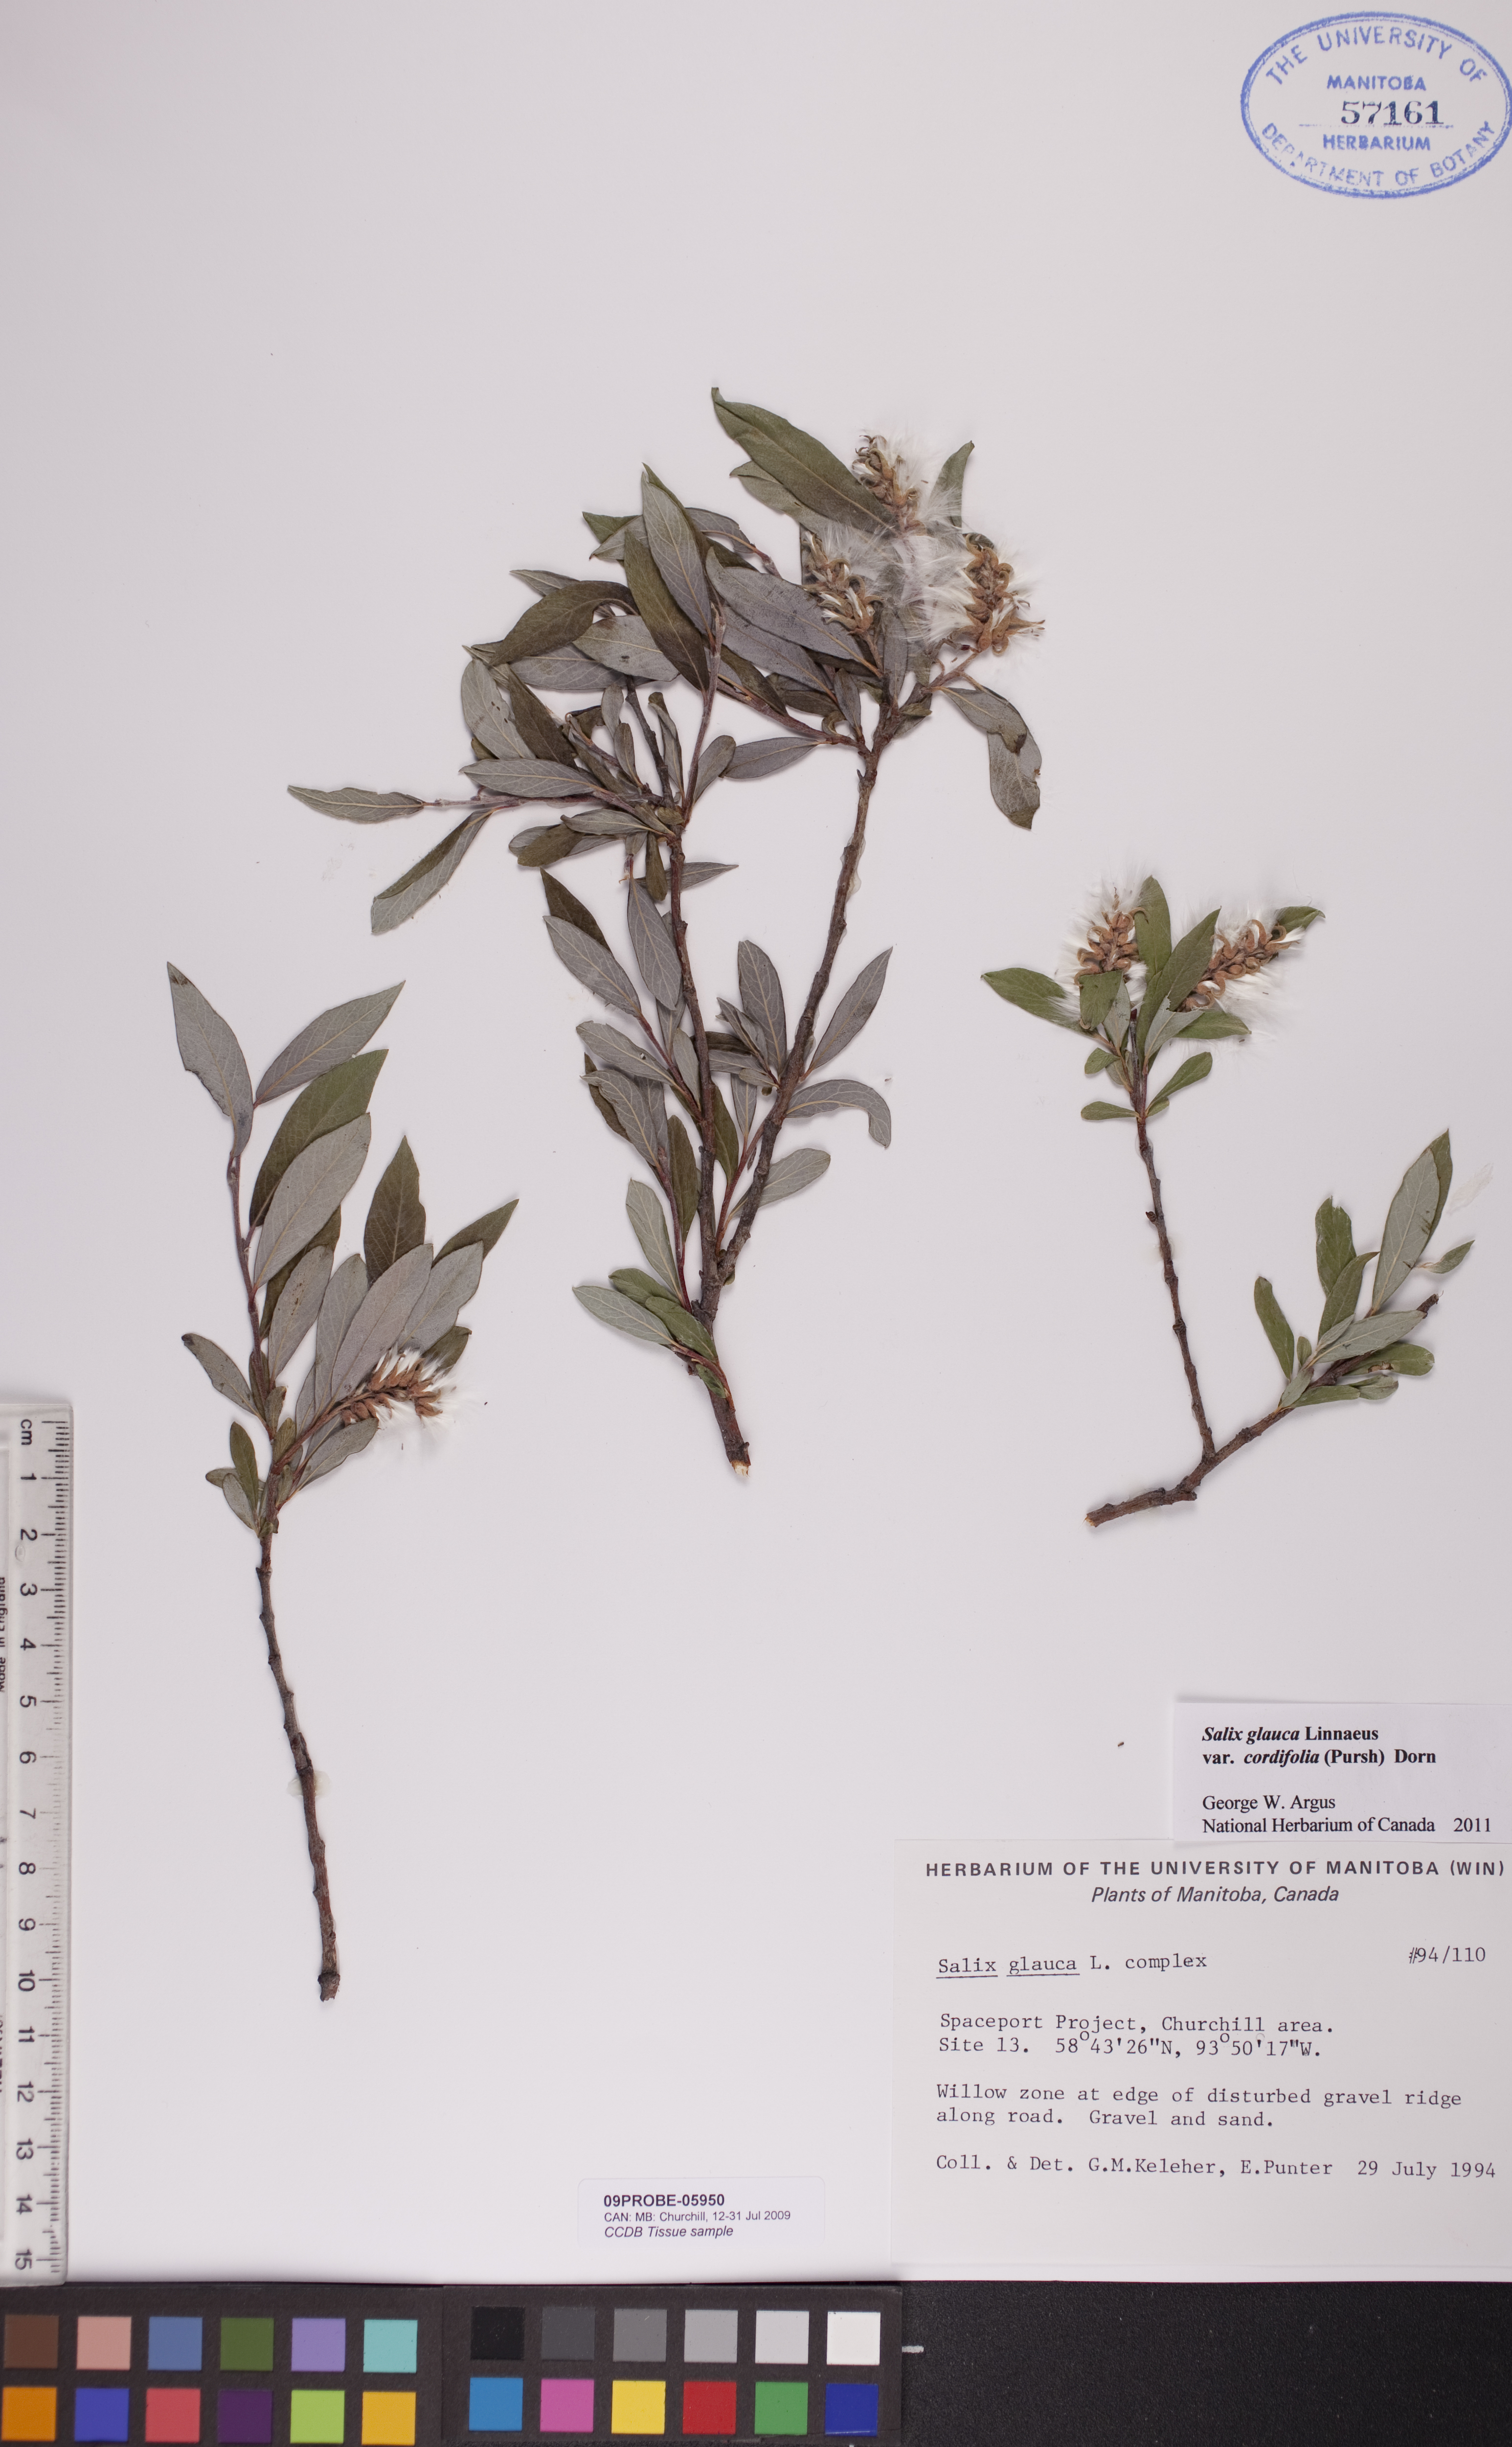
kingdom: Plantae
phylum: Tracheophyta
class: Magnoliopsida
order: Malpighiales
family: Salicaceae
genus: Salix
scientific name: Salix glauca
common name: Glaucous willow
